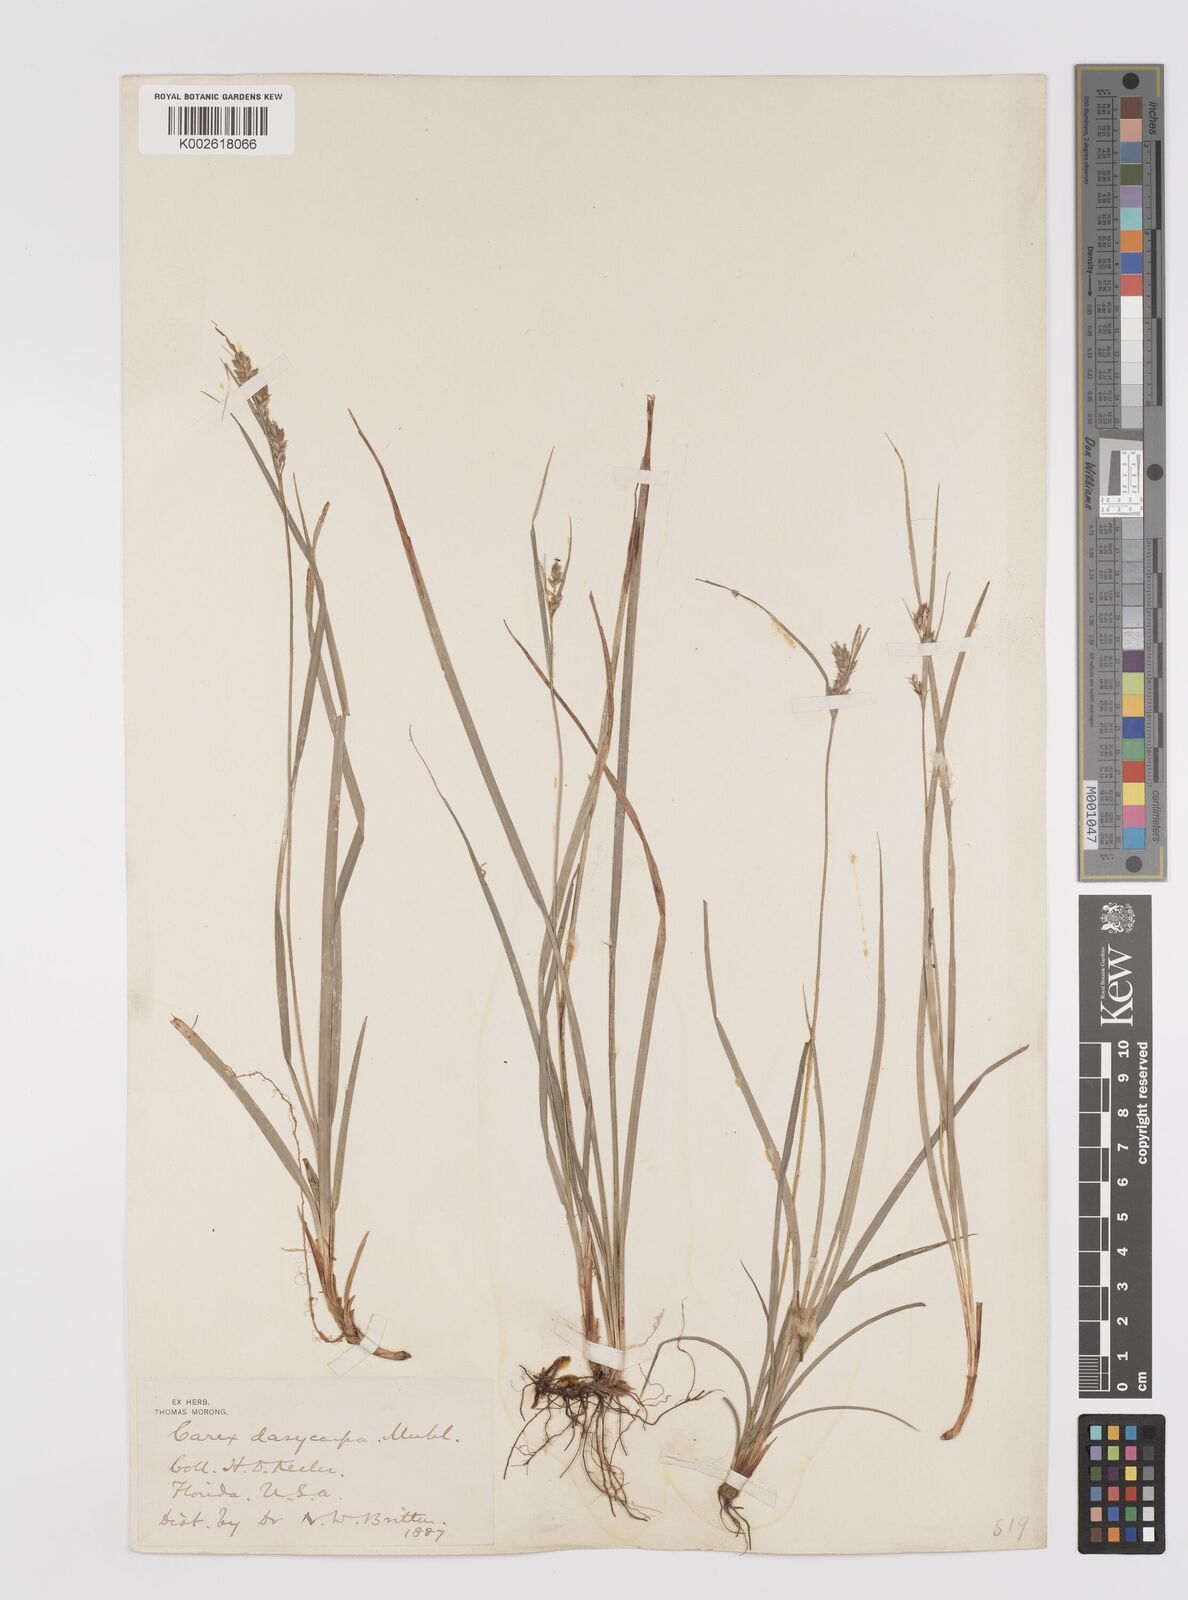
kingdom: Plantae
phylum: Tracheophyta
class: Liliopsida
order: Poales
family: Cyperaceae
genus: Carex
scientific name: Carex dasycarpa
